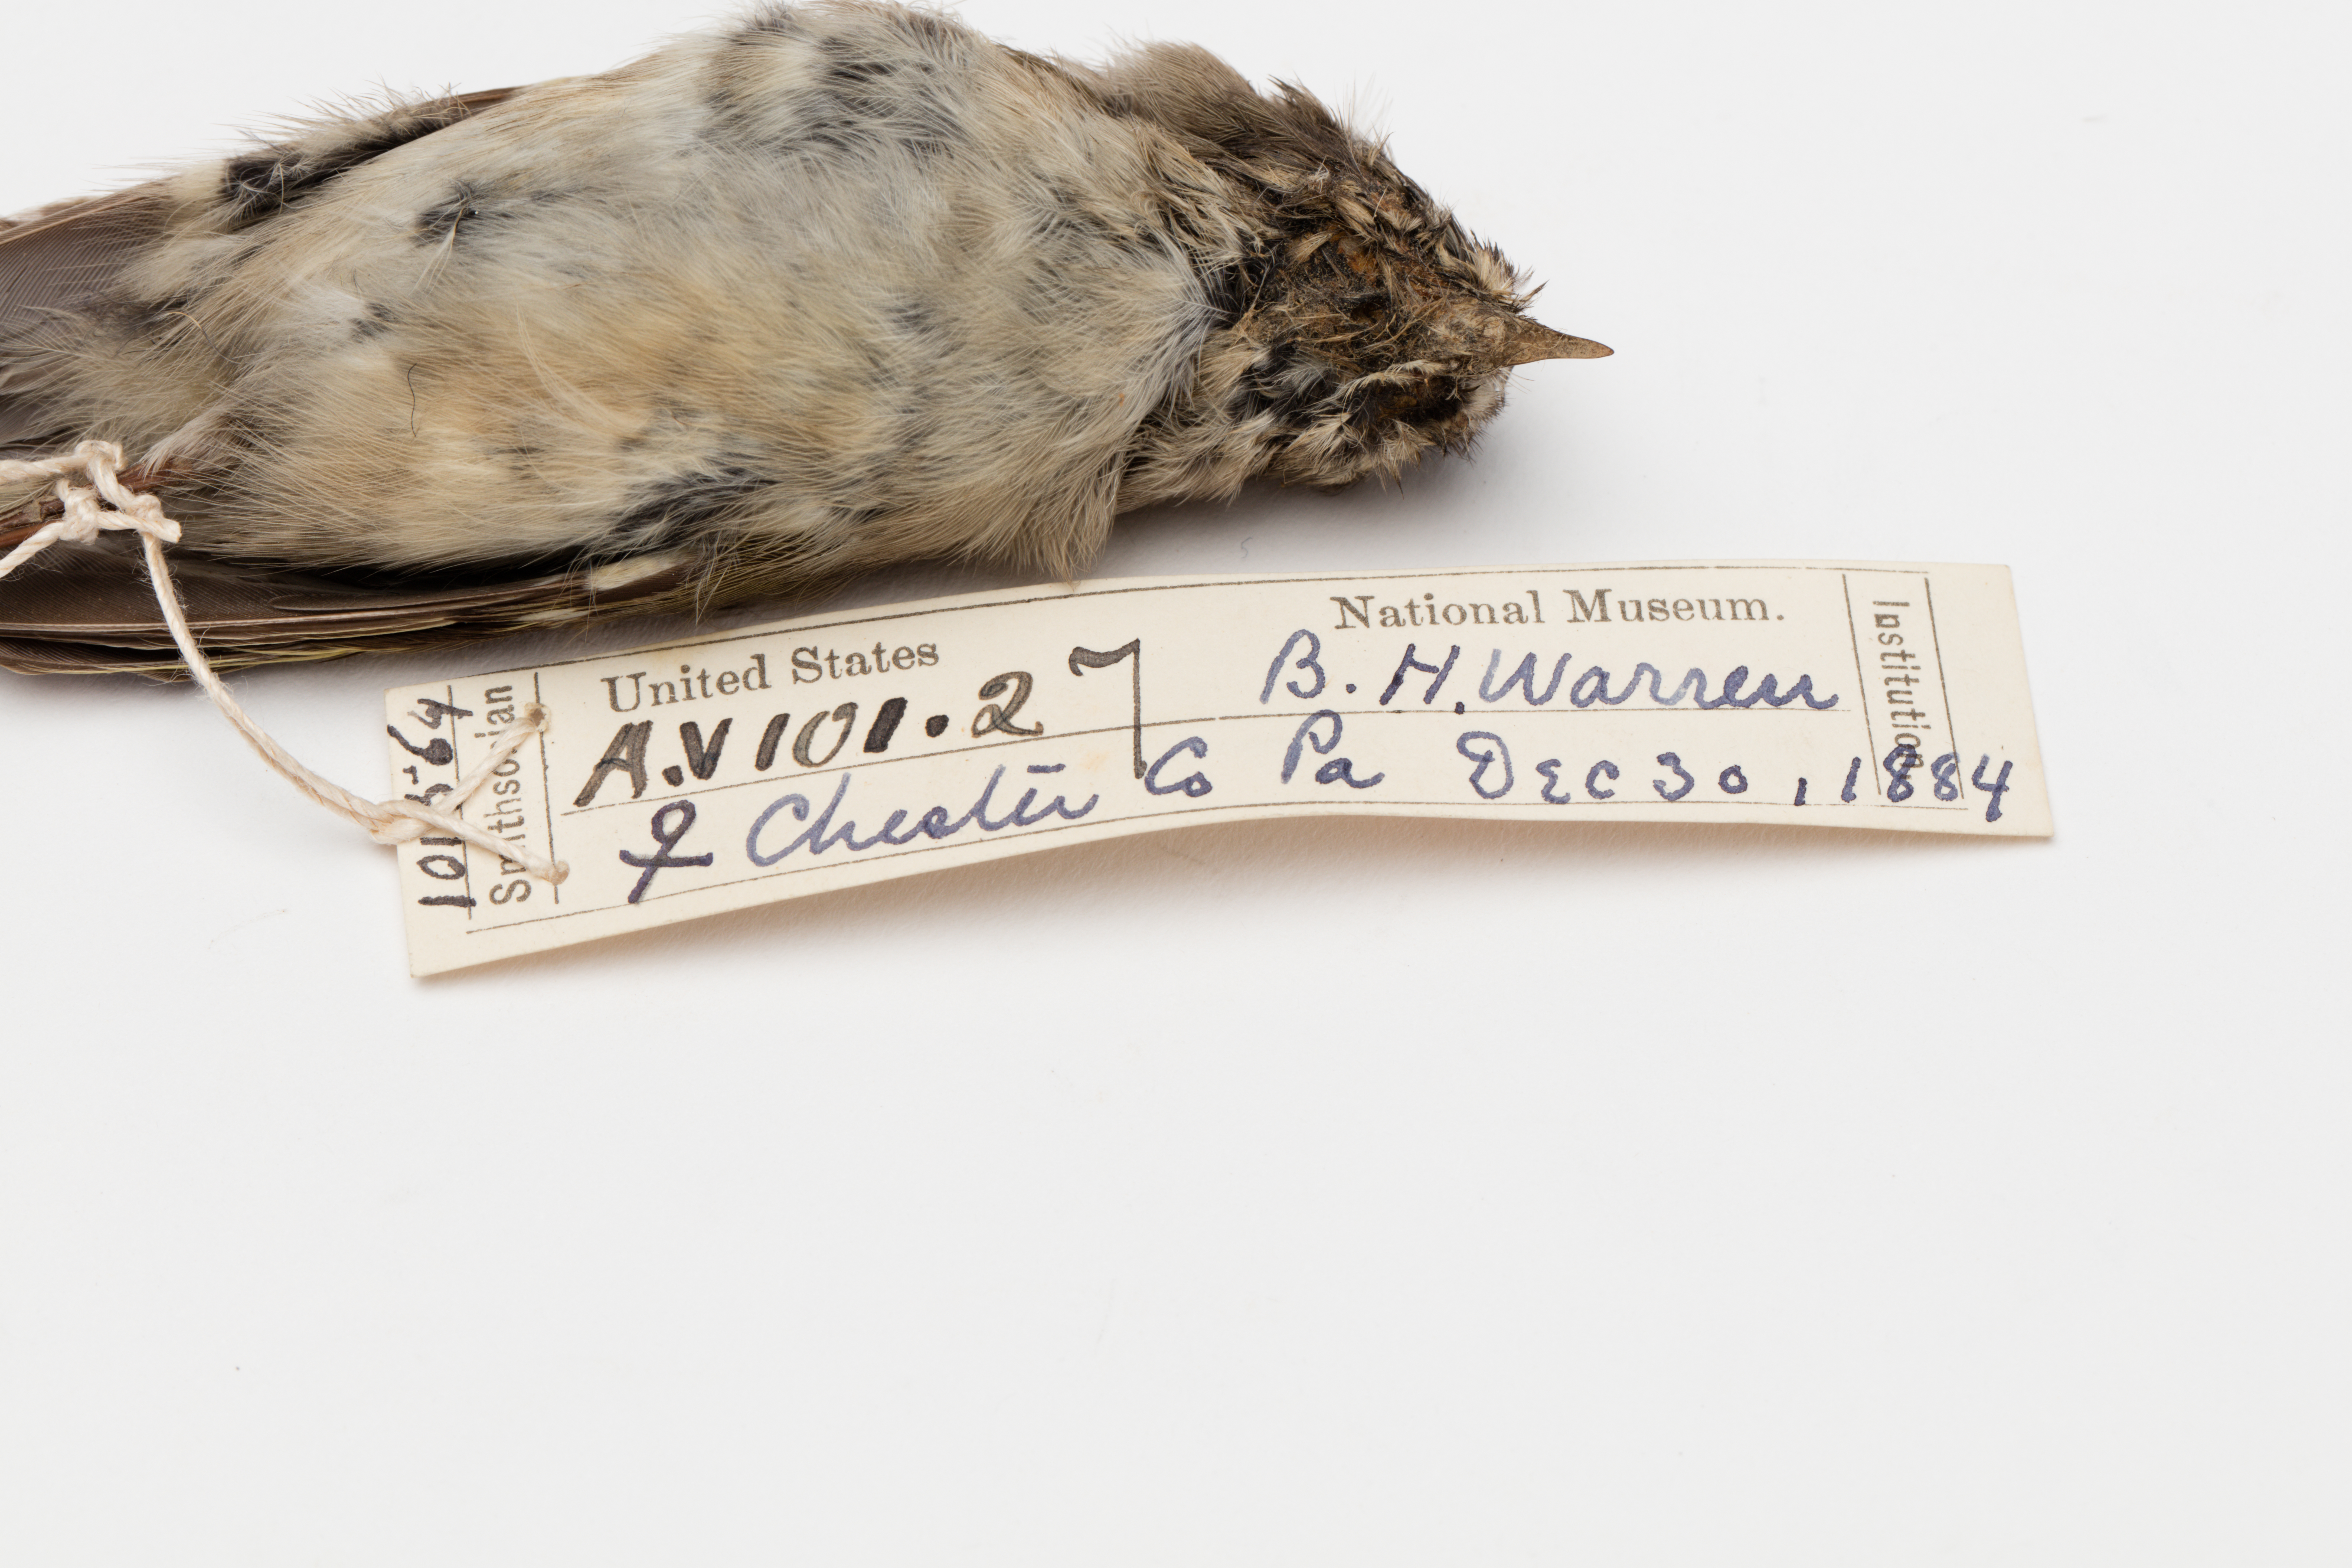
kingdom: Animalia
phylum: Chordata
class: Aves
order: Passeriformes
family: Regulidae
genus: Regulus
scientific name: Regulus satrapa
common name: Golden-crowned kinglet
